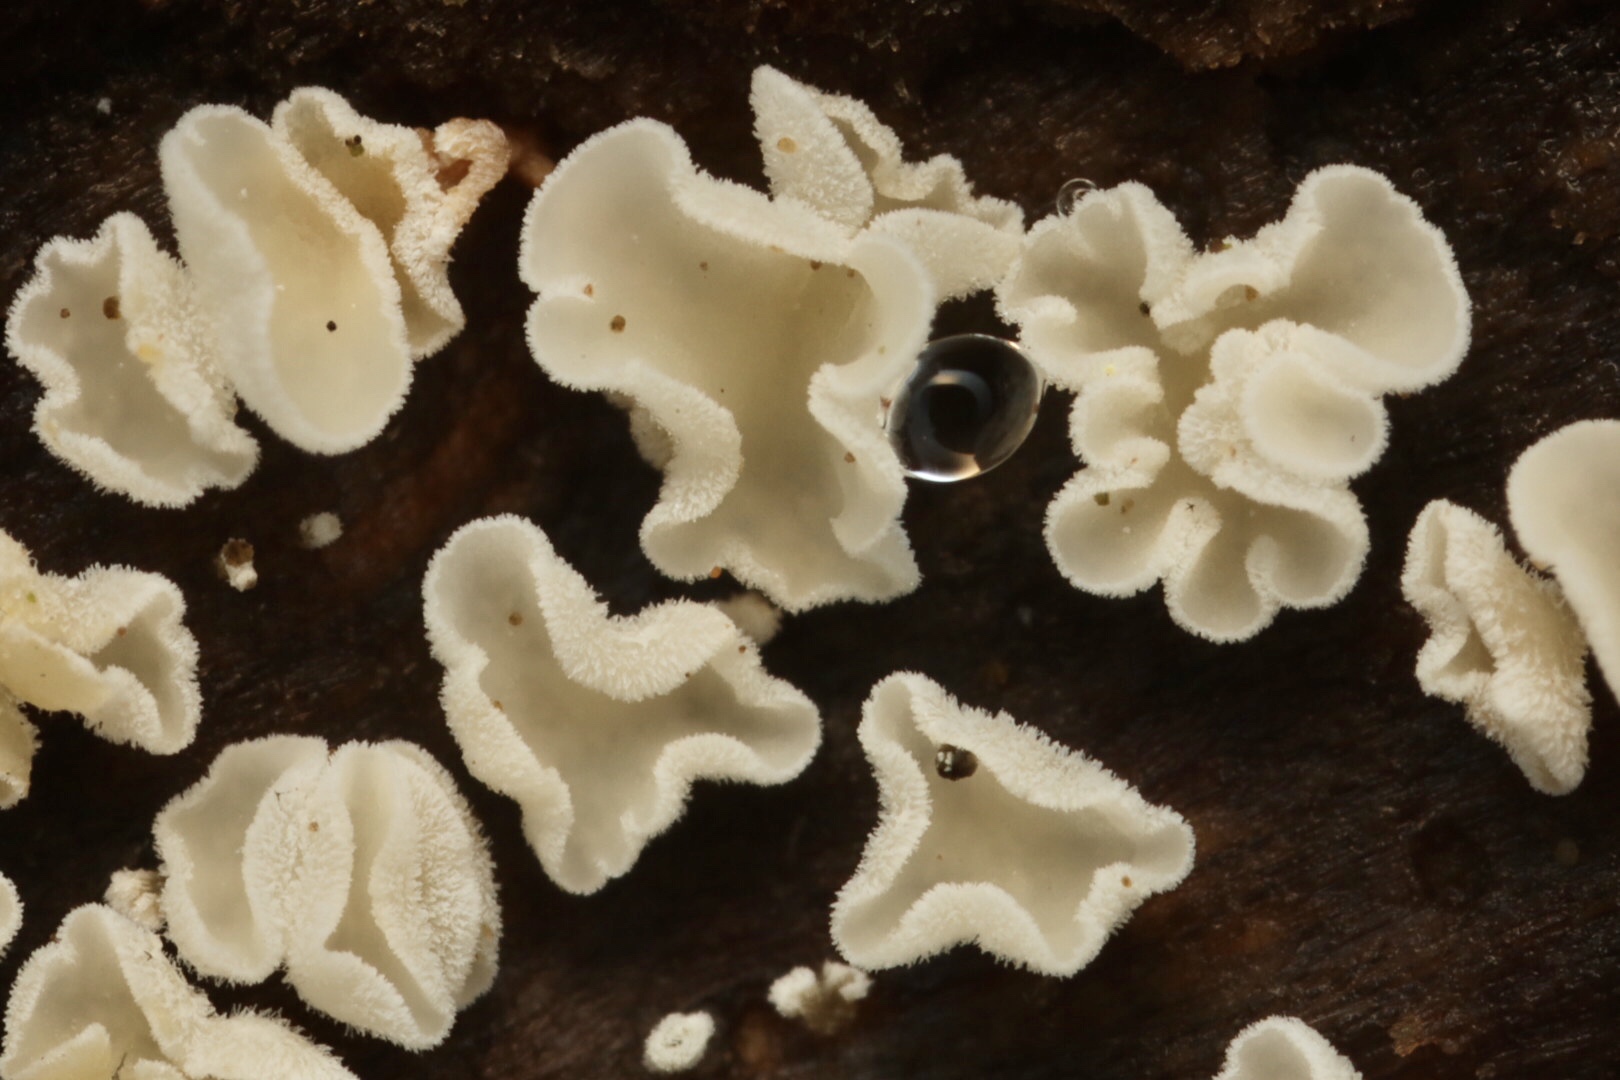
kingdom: Fungi
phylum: Ascomycota
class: Leotiomycetes
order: Helotiales
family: Lachnaceae
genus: Lachnum
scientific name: Lachnum
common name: frynseskive
